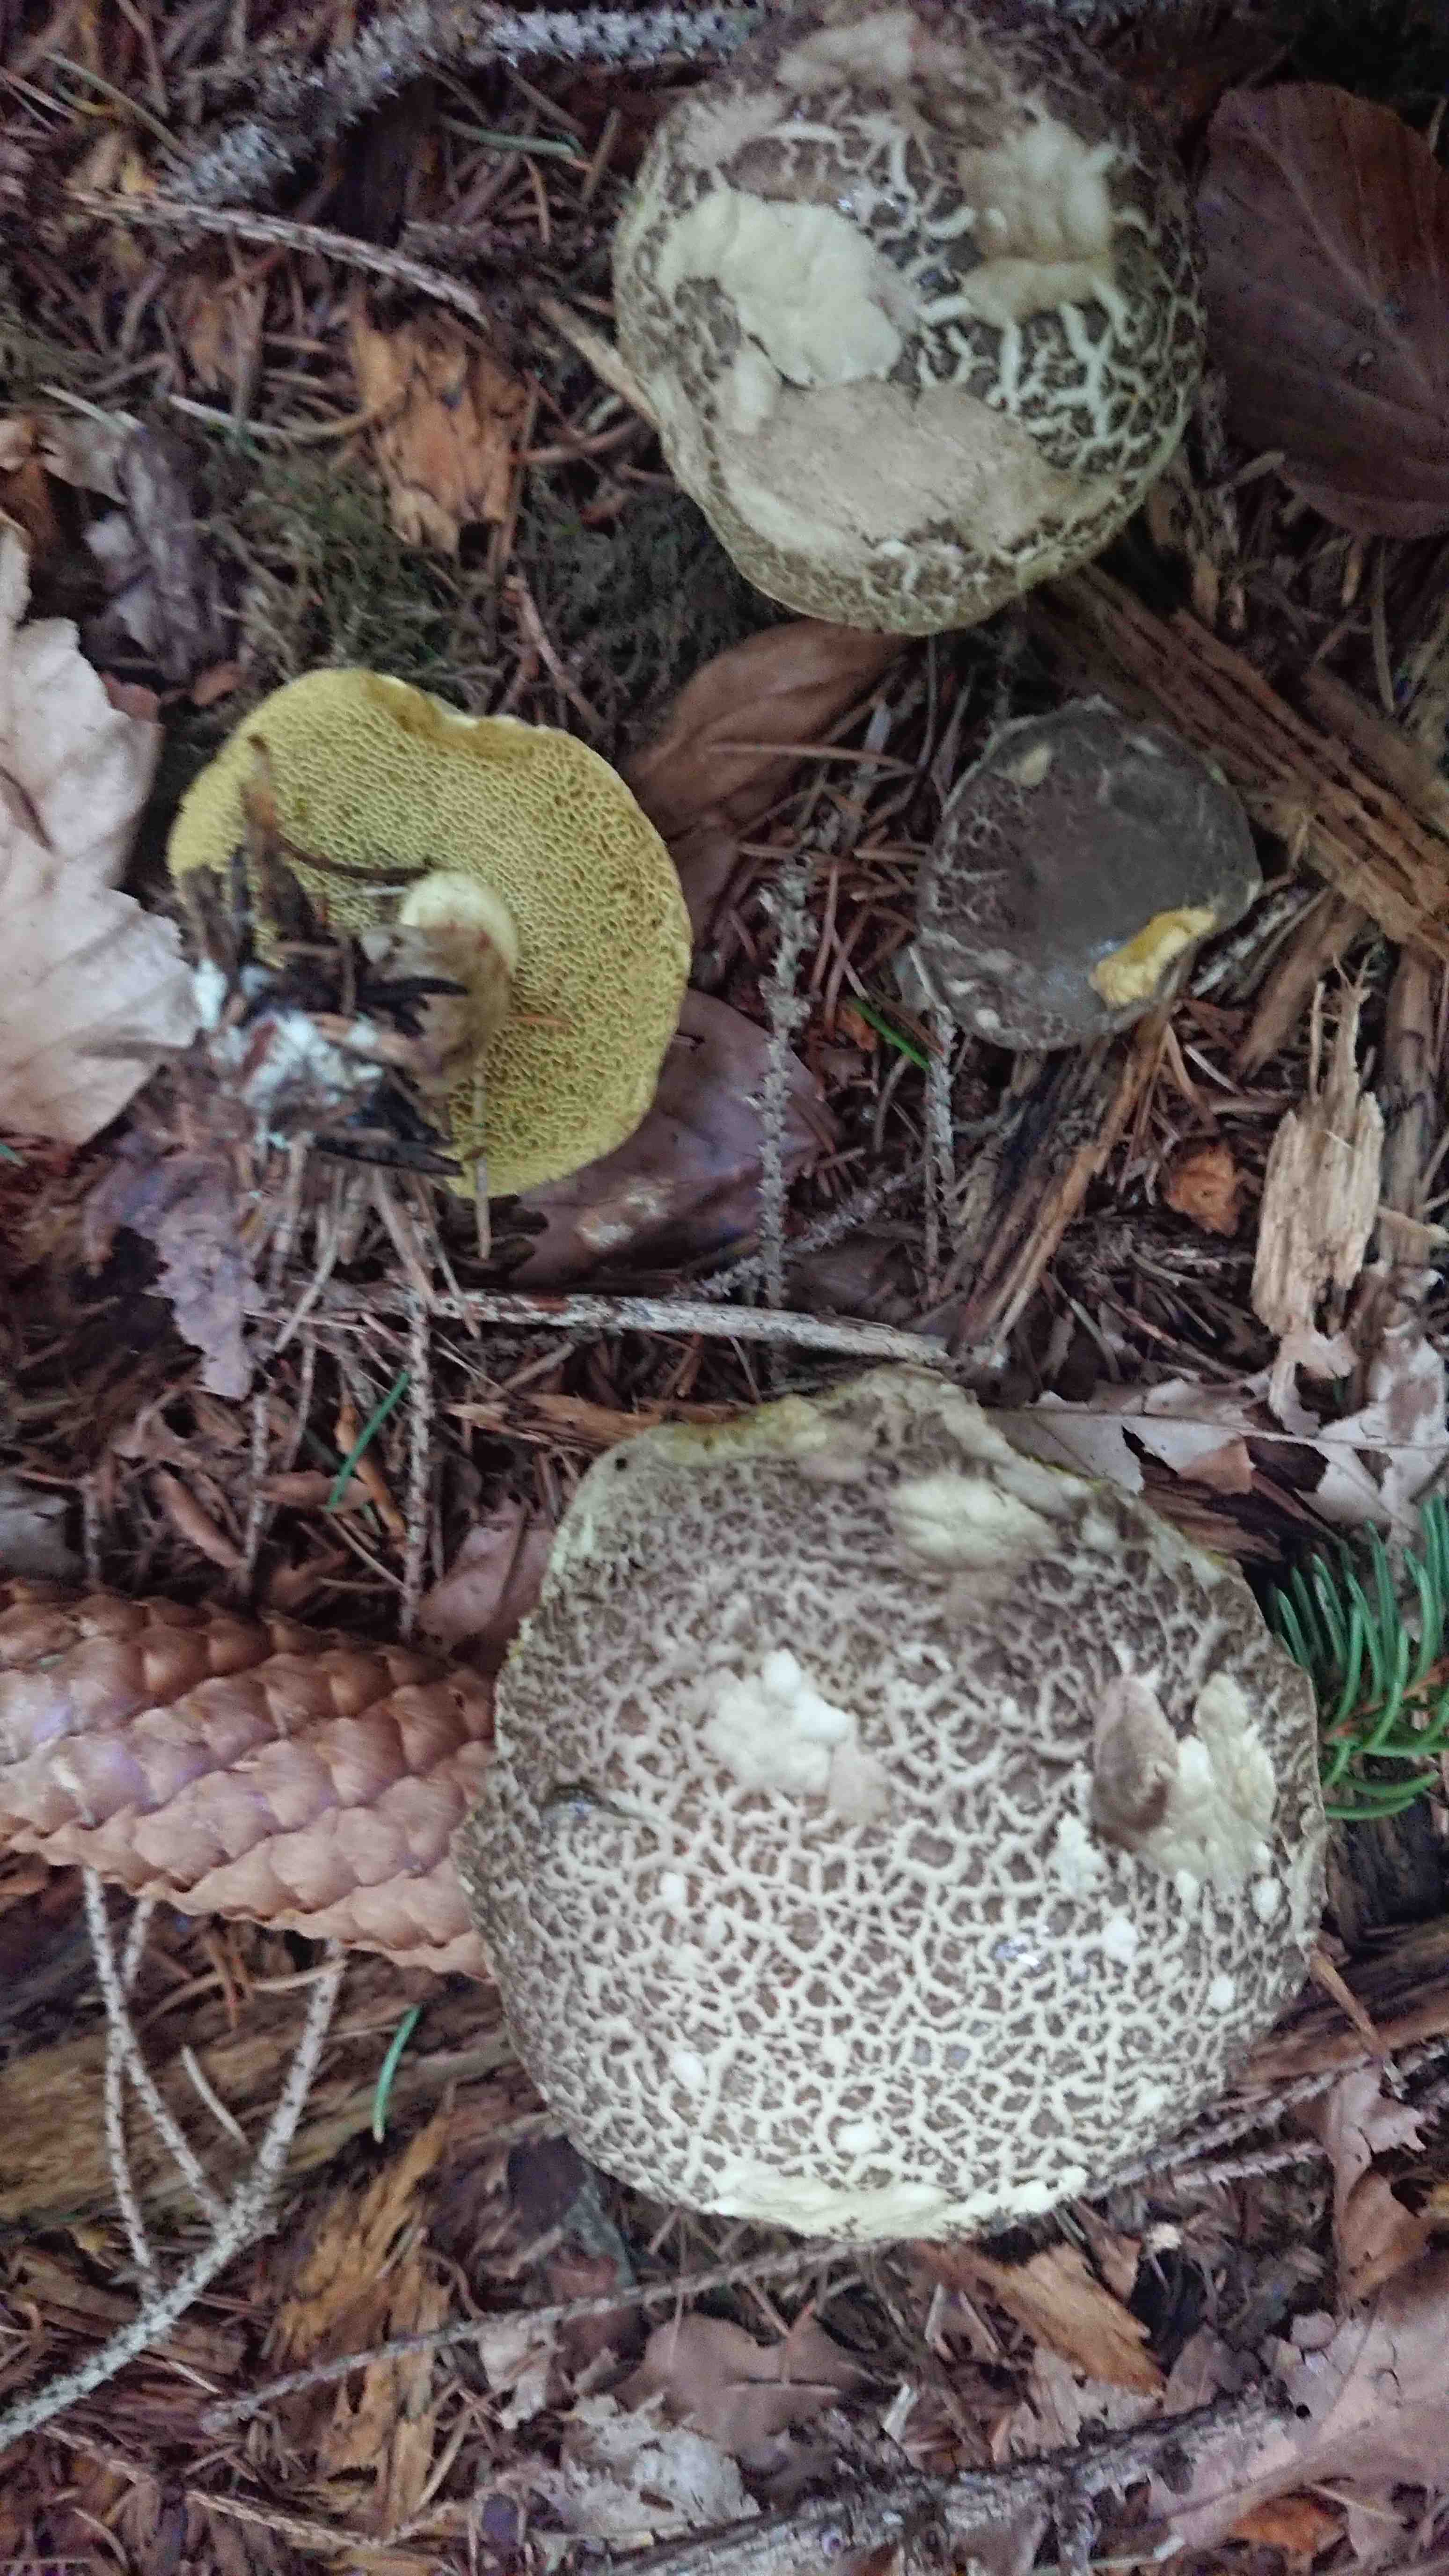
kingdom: Fungi
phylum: Basidiomycota
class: Agaricomycetes
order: Boletales
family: Boletaceae
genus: Xerocomellus
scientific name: Xerocomellus porosporus
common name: hvidsprukken rørhat
